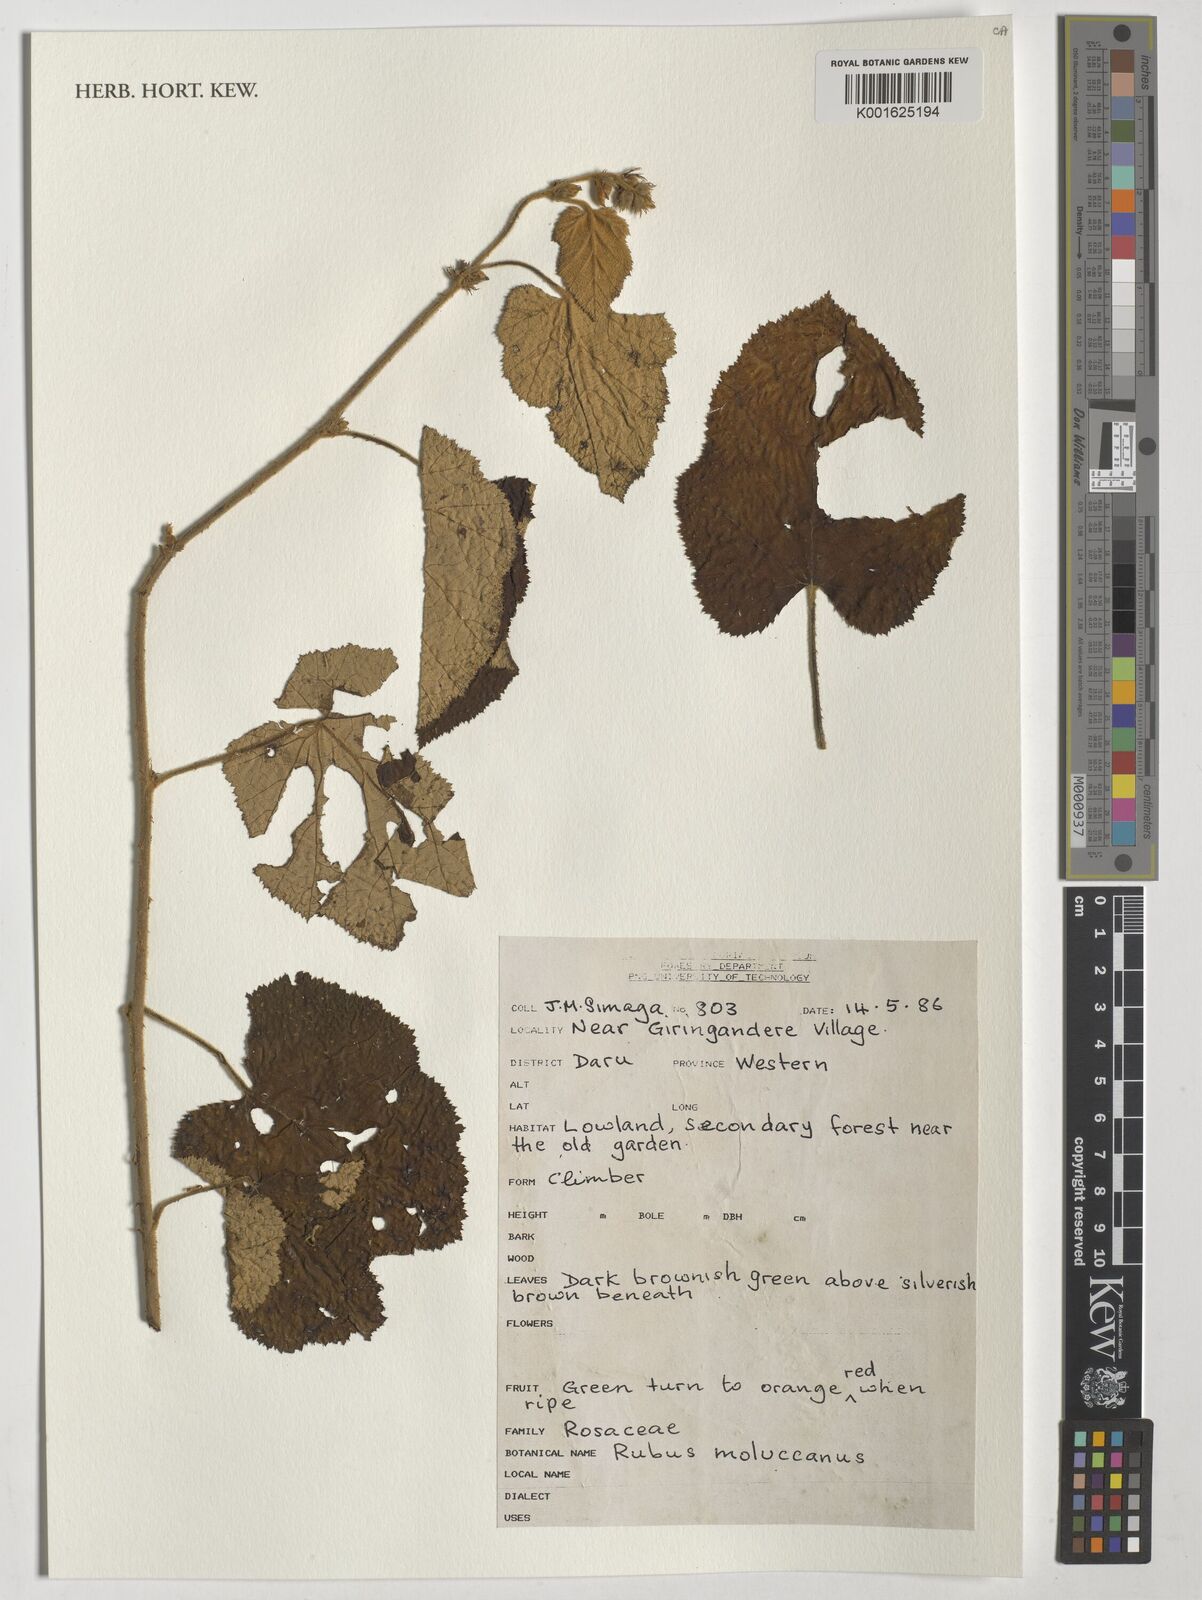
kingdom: Plantae
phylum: Tracheophyta
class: Magnoliopsida
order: Rosales
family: Rosaceae
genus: Rubus
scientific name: Rubus moluccanus
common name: Wild raspberry
